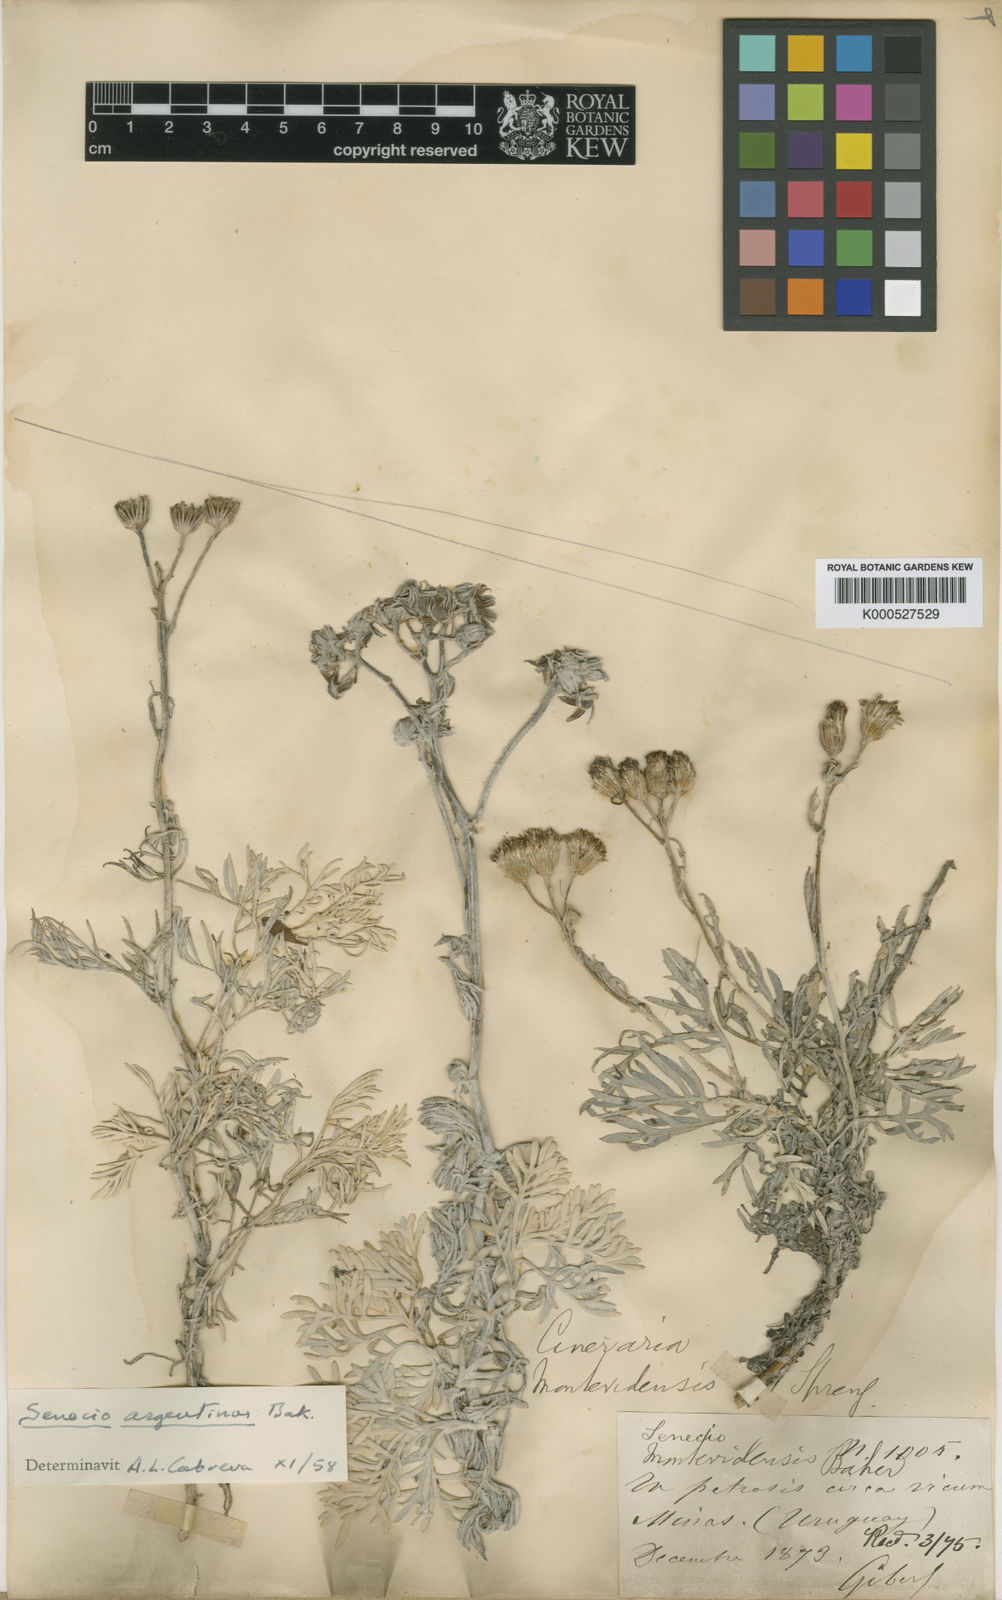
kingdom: Plantae
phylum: Tracheophyta
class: Magnoliopsida
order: Asterales
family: Asteraceae
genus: Senecio
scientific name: Senecio vira-vira
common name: Dusty-miller
